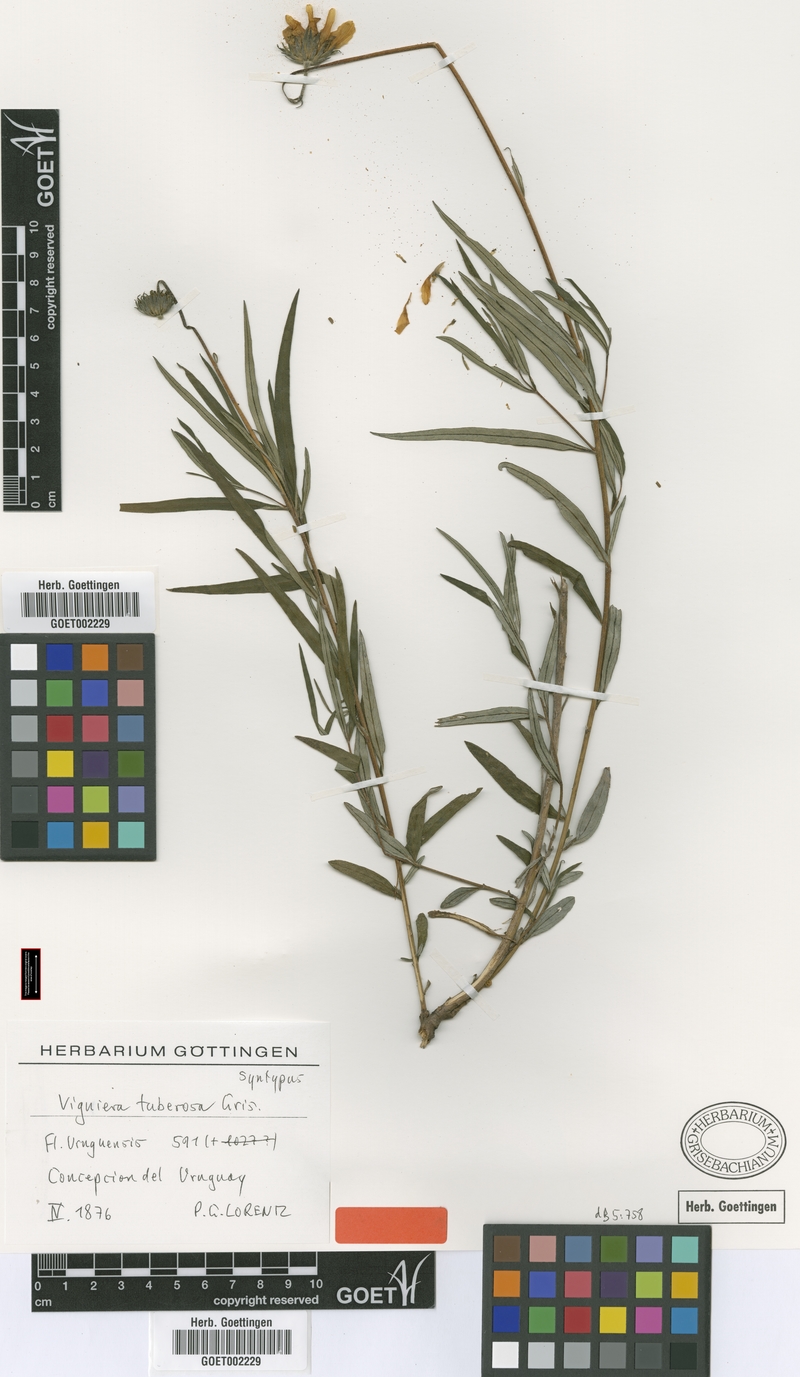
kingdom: Plantae
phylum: Tracheophyta
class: Magnoliopsida
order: Asterales
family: Asteraceae
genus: Aldama
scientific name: Aldama tuberosa
